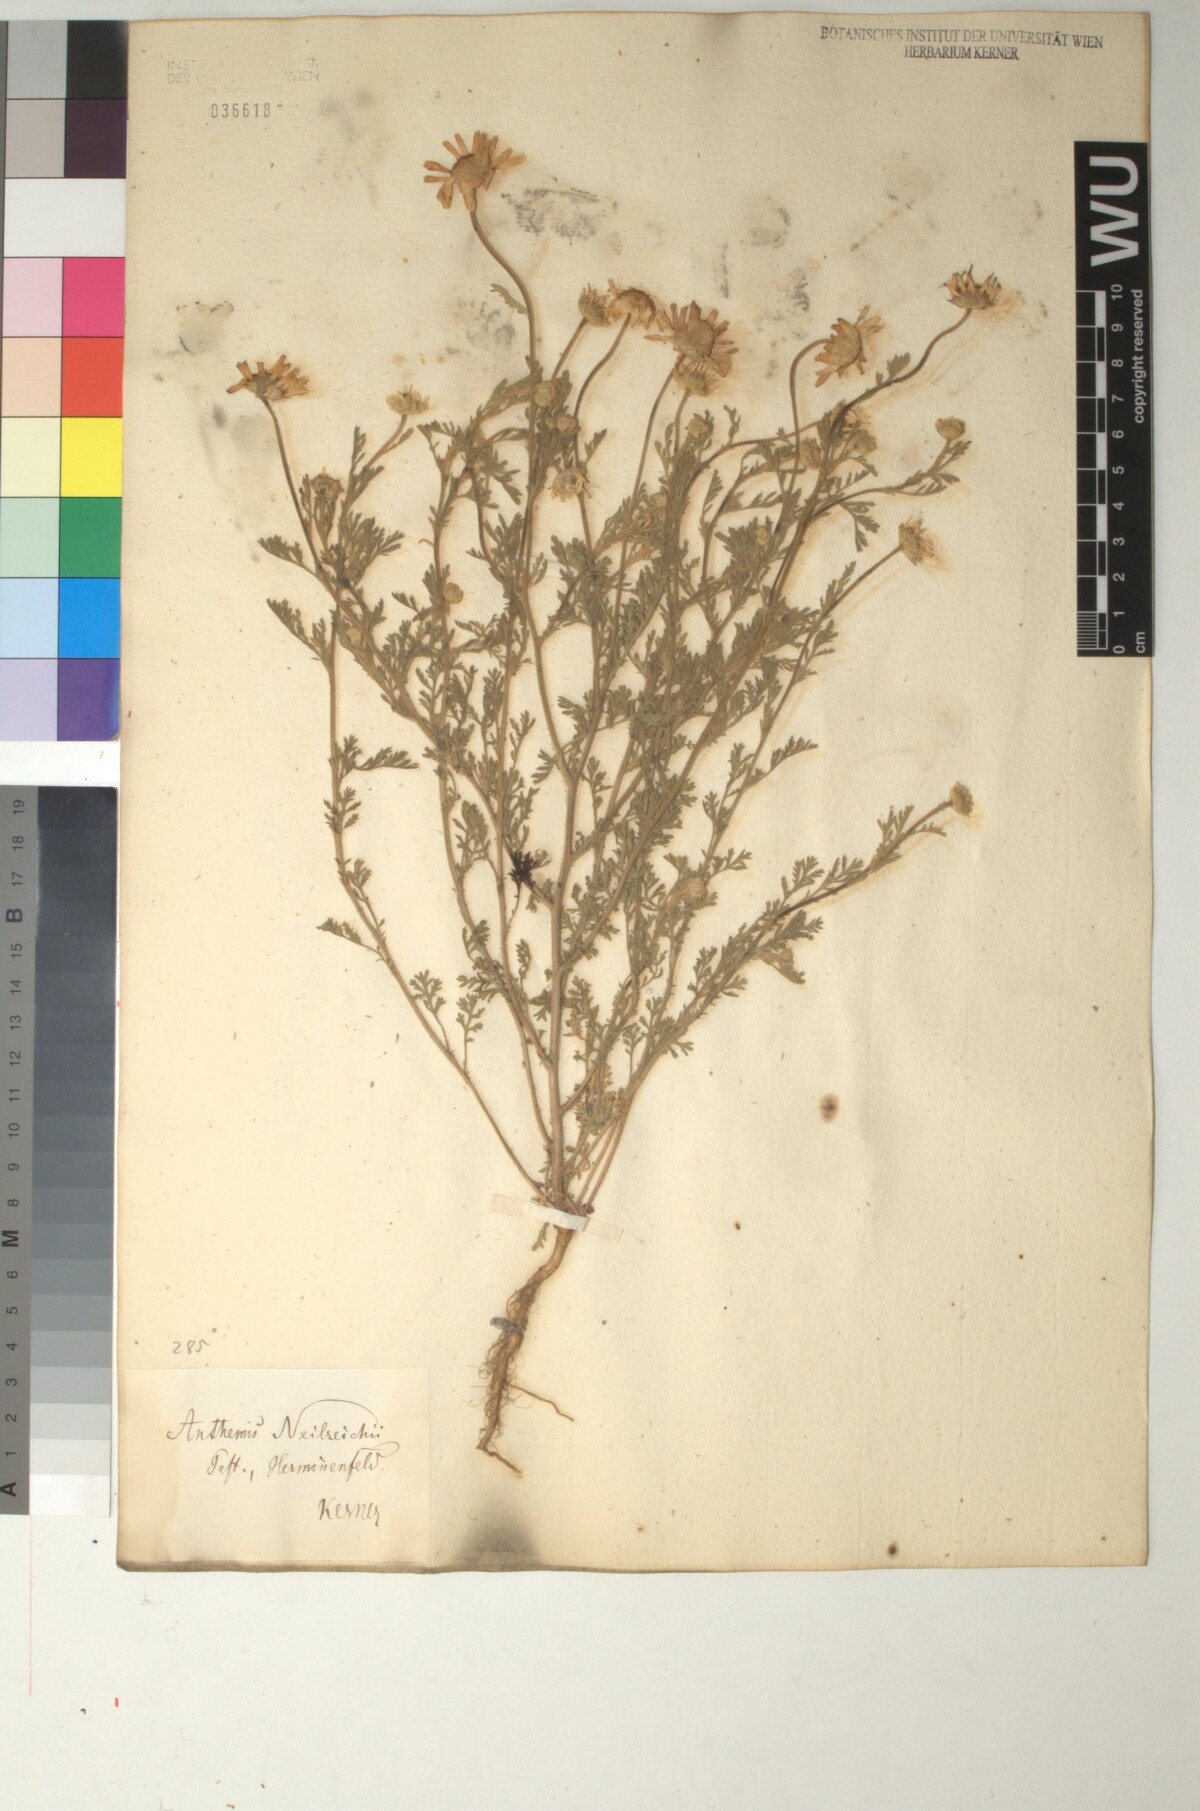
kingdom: Plantae
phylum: Tracheophyta
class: Magnoliopsida
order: Asterales
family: Asteraceae
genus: Anthemis
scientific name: Anthemis ruthenica
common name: Eastern chamomile
